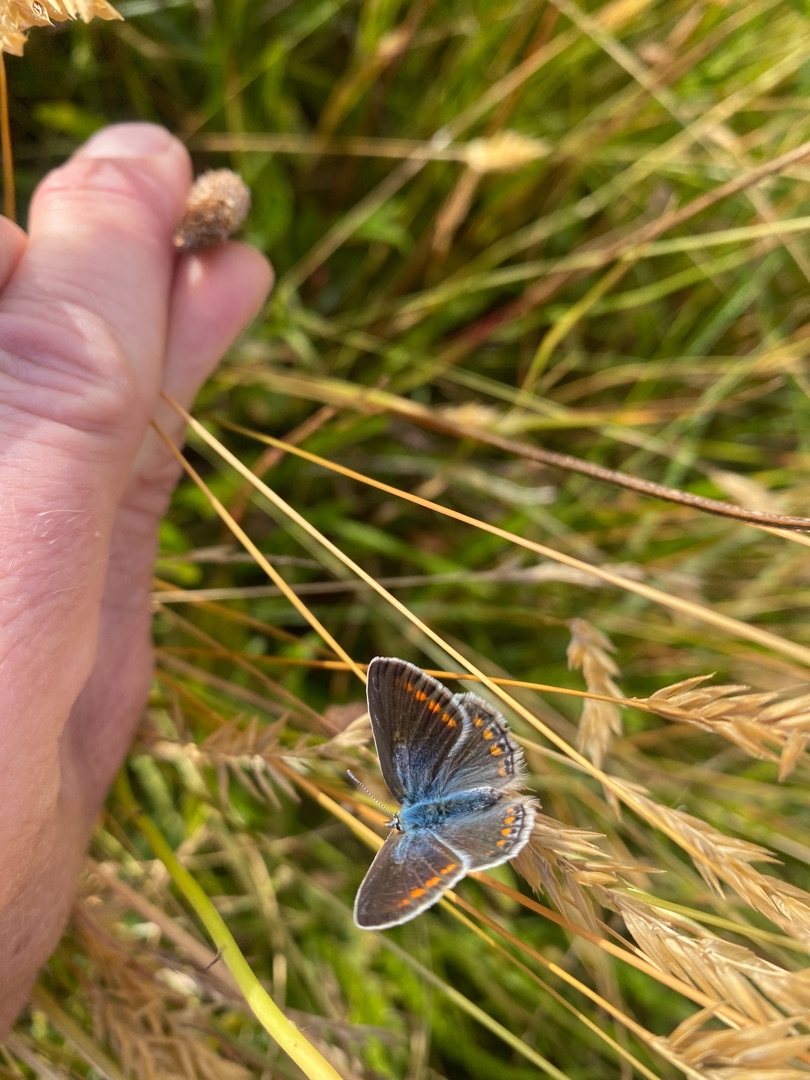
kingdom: Animalia
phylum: Arthropoda
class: Insecta
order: Lepidoptera
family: Lycaenidae
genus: Polyommatus
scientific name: Polyommatus icarus
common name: Almindelig blåfugl
